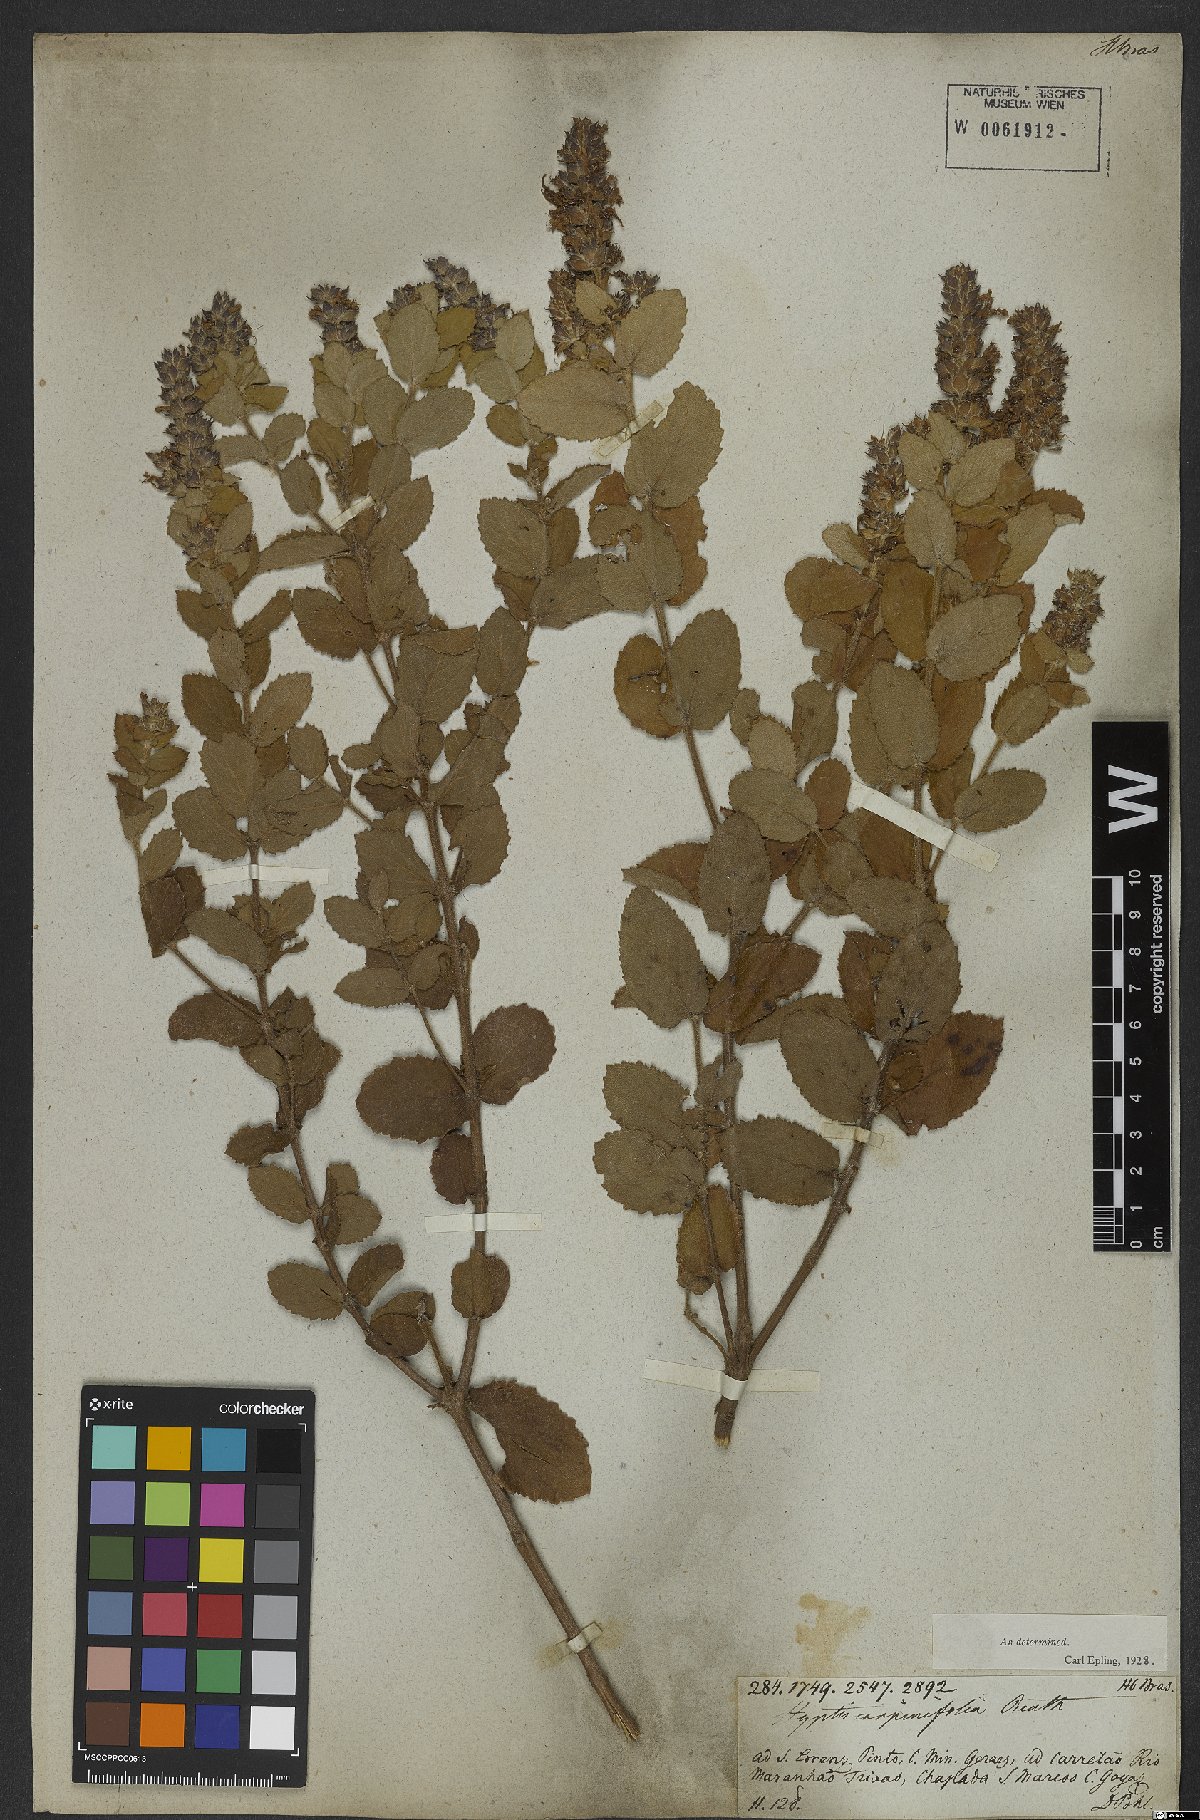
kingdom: Plantae
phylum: Tracheophyta
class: Magnoliopsida
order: Lamiales
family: Lamiaceae
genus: Cantinoa
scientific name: Cantinoa carpinifolia
